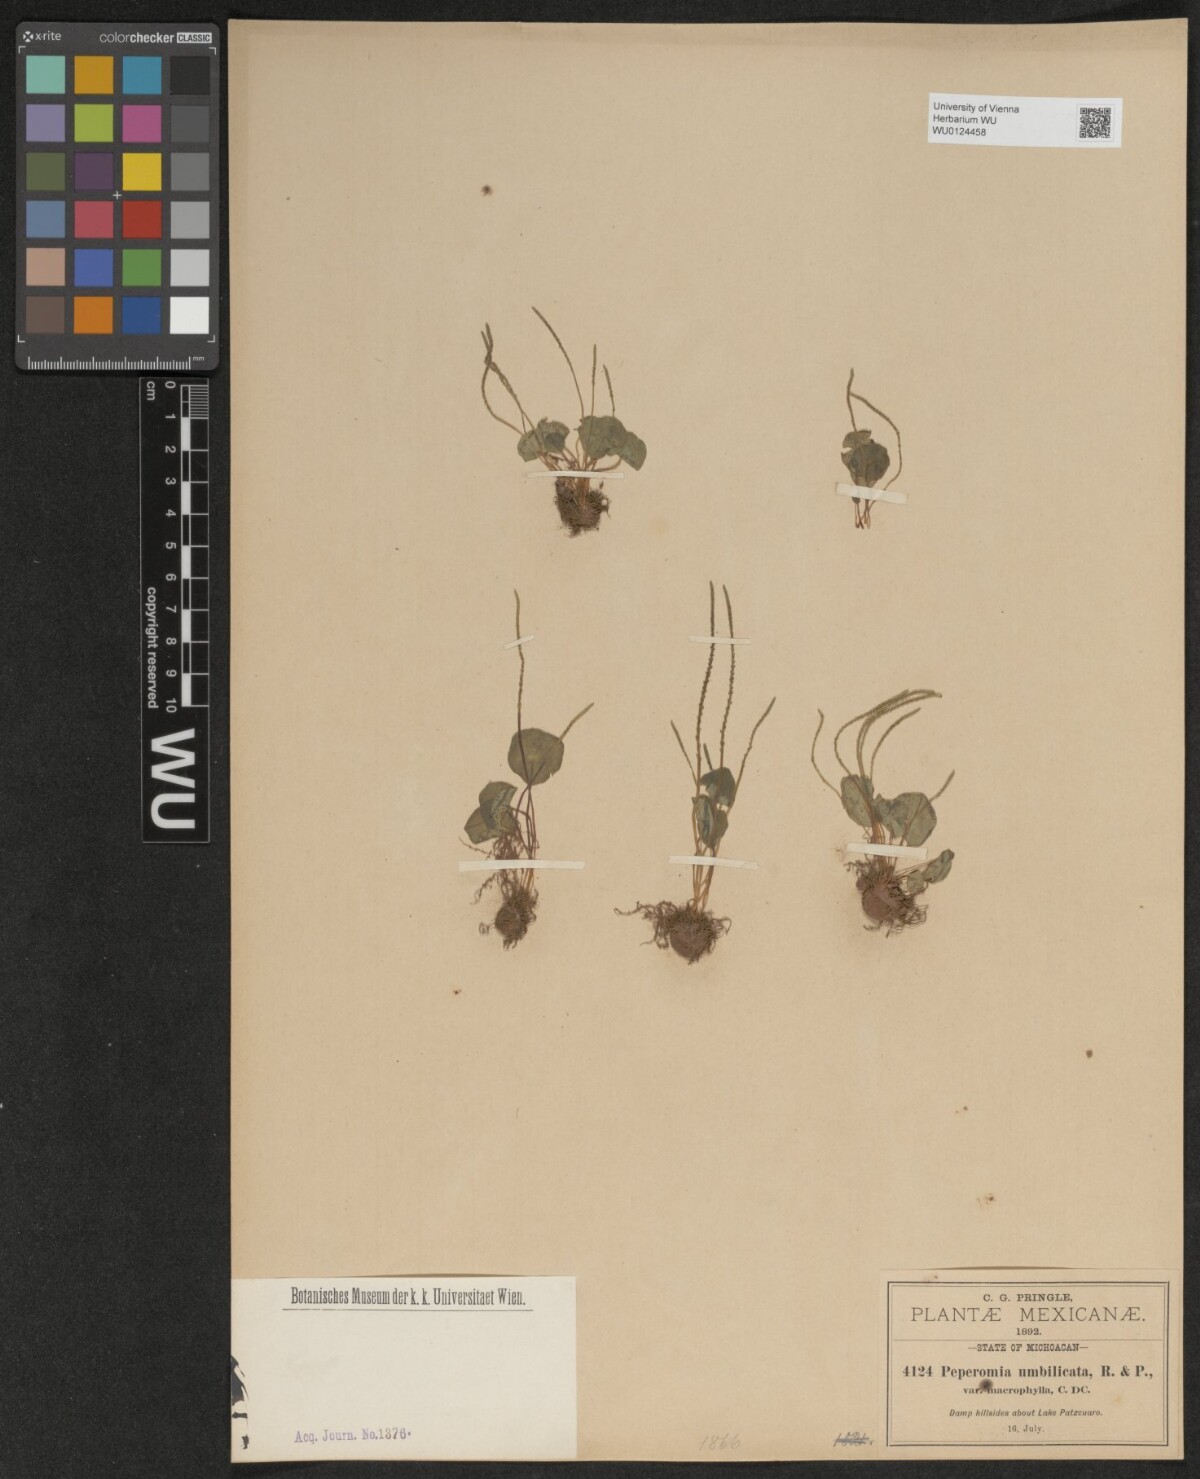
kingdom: Plantae
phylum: Tracheophyta
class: Magnoliopsida
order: Piperales
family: Piperaceae
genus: Peperomia
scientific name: Peperomia umbilicata
